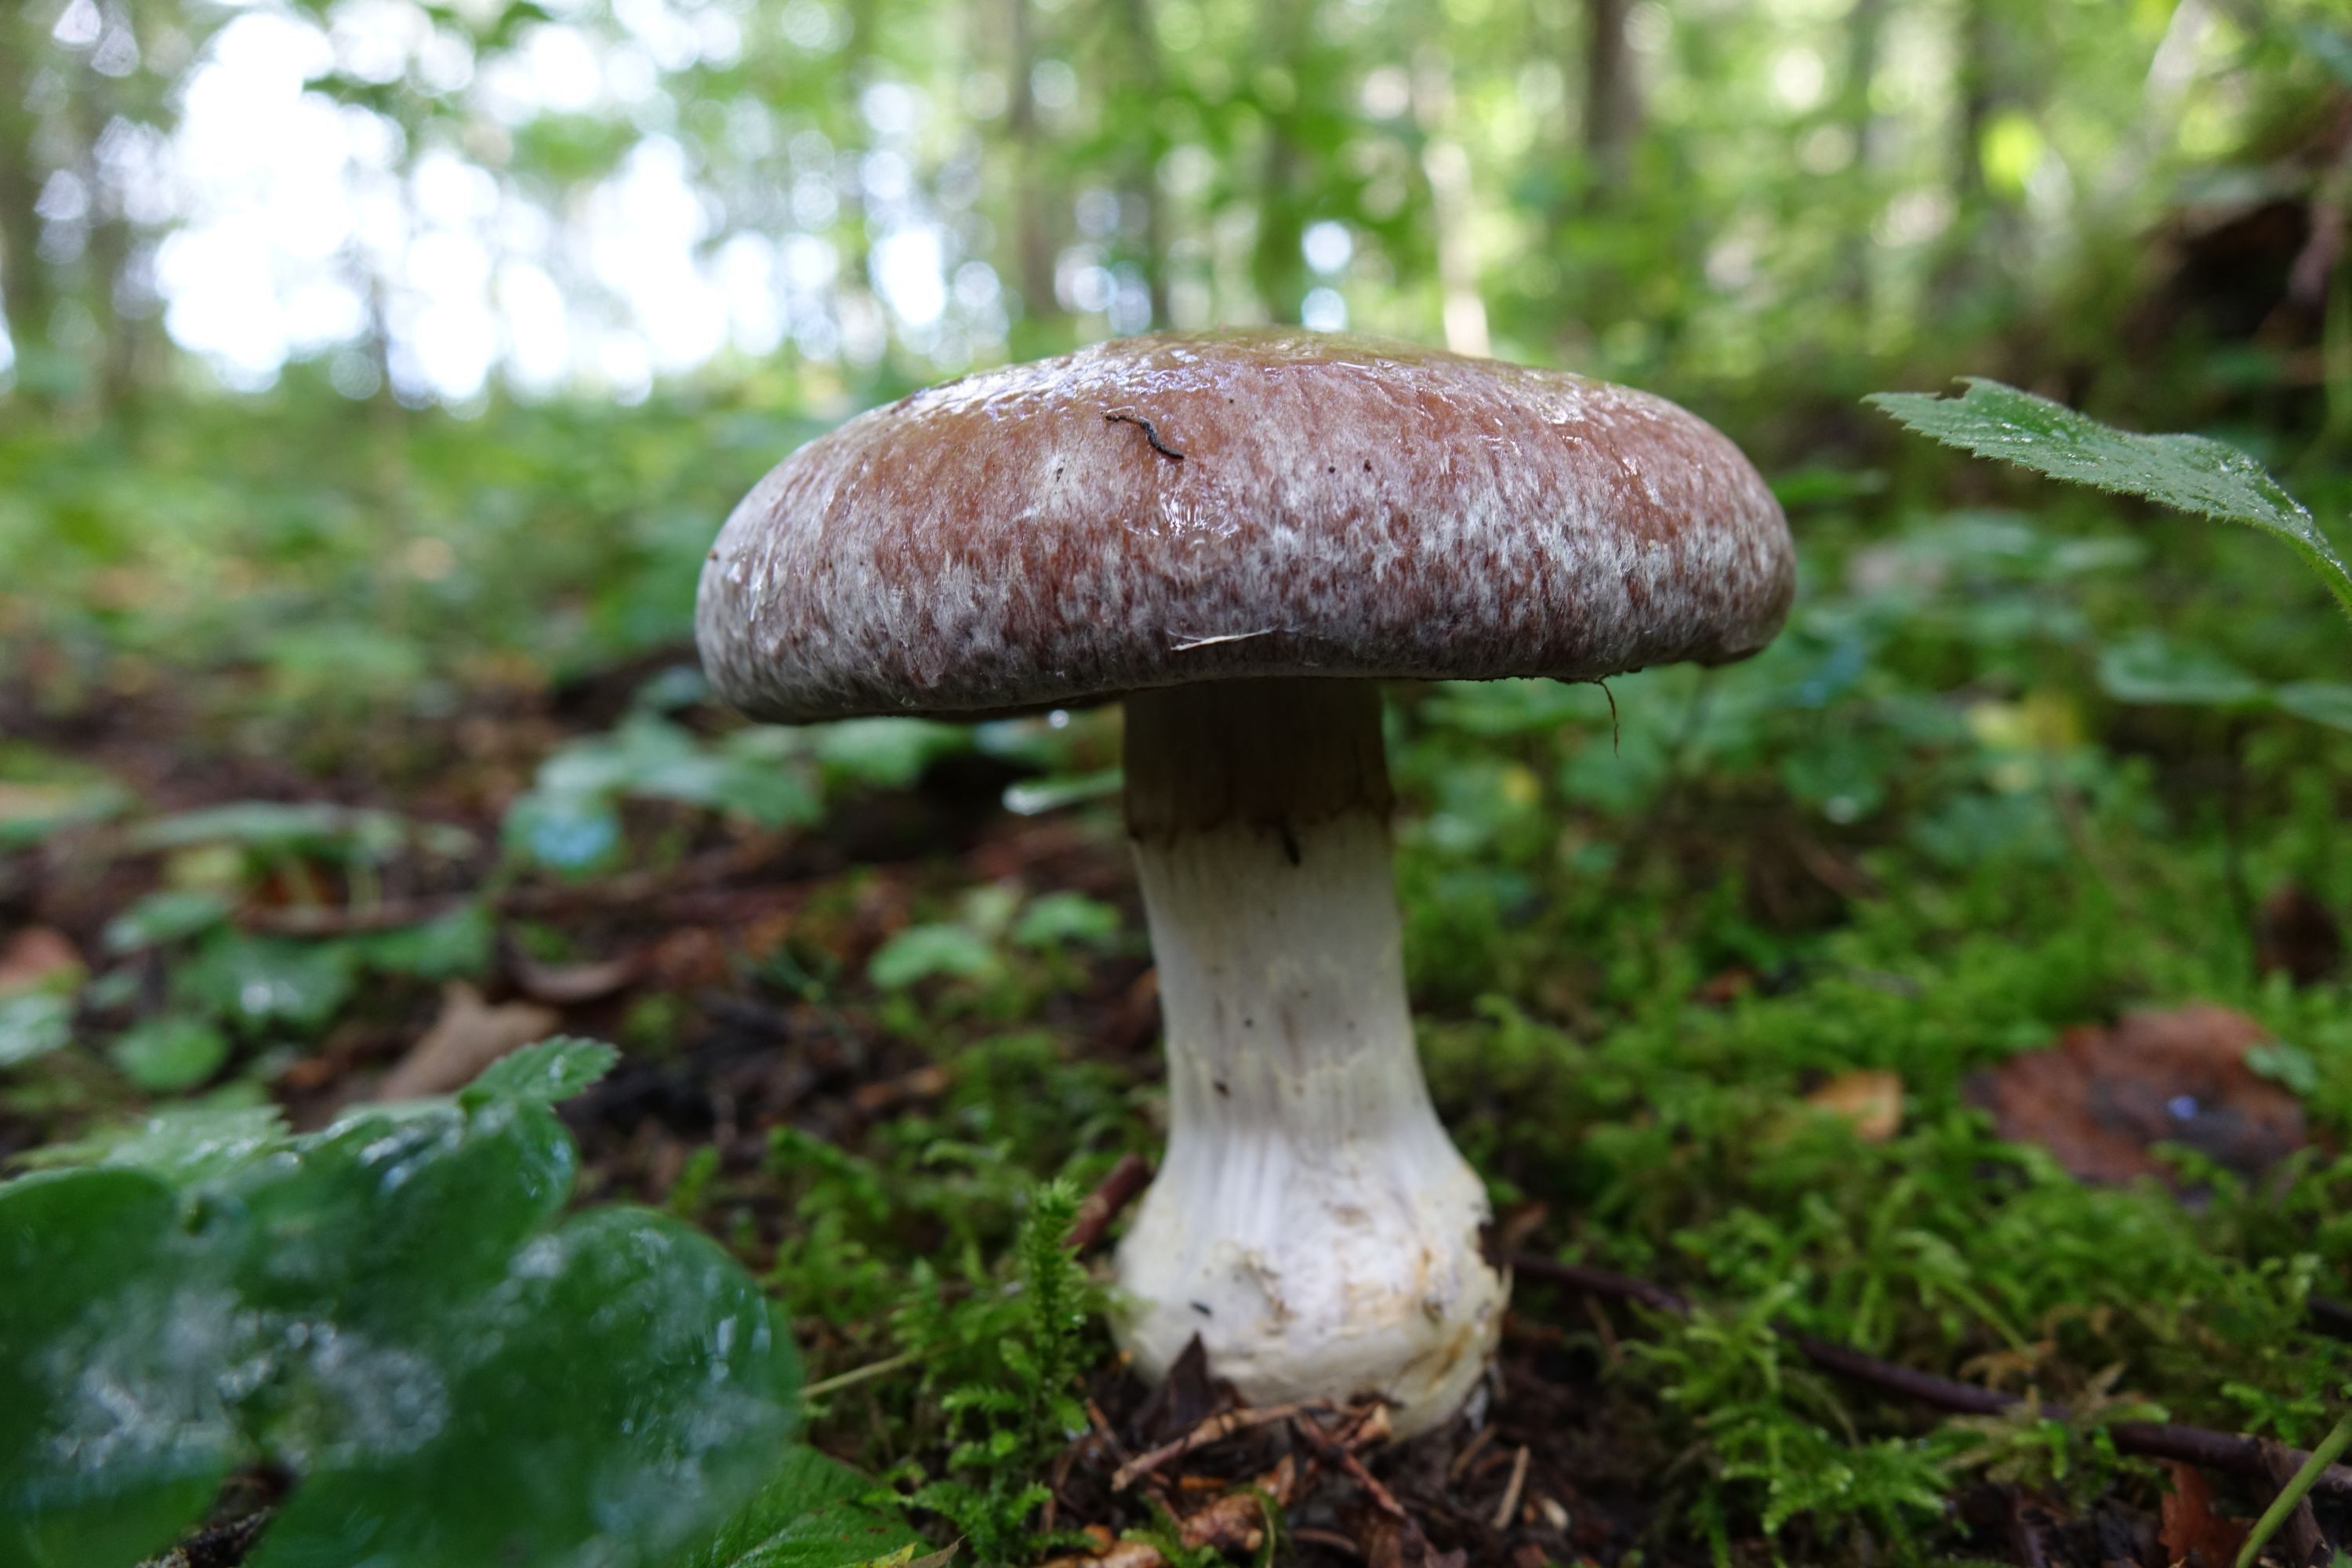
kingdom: Fungi
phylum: Basidiomycota
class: Agaricomycetes
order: Agaricales
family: Cortinariaceae
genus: Cortinarius
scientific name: Cortinarius praestans
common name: Goliath webcap
